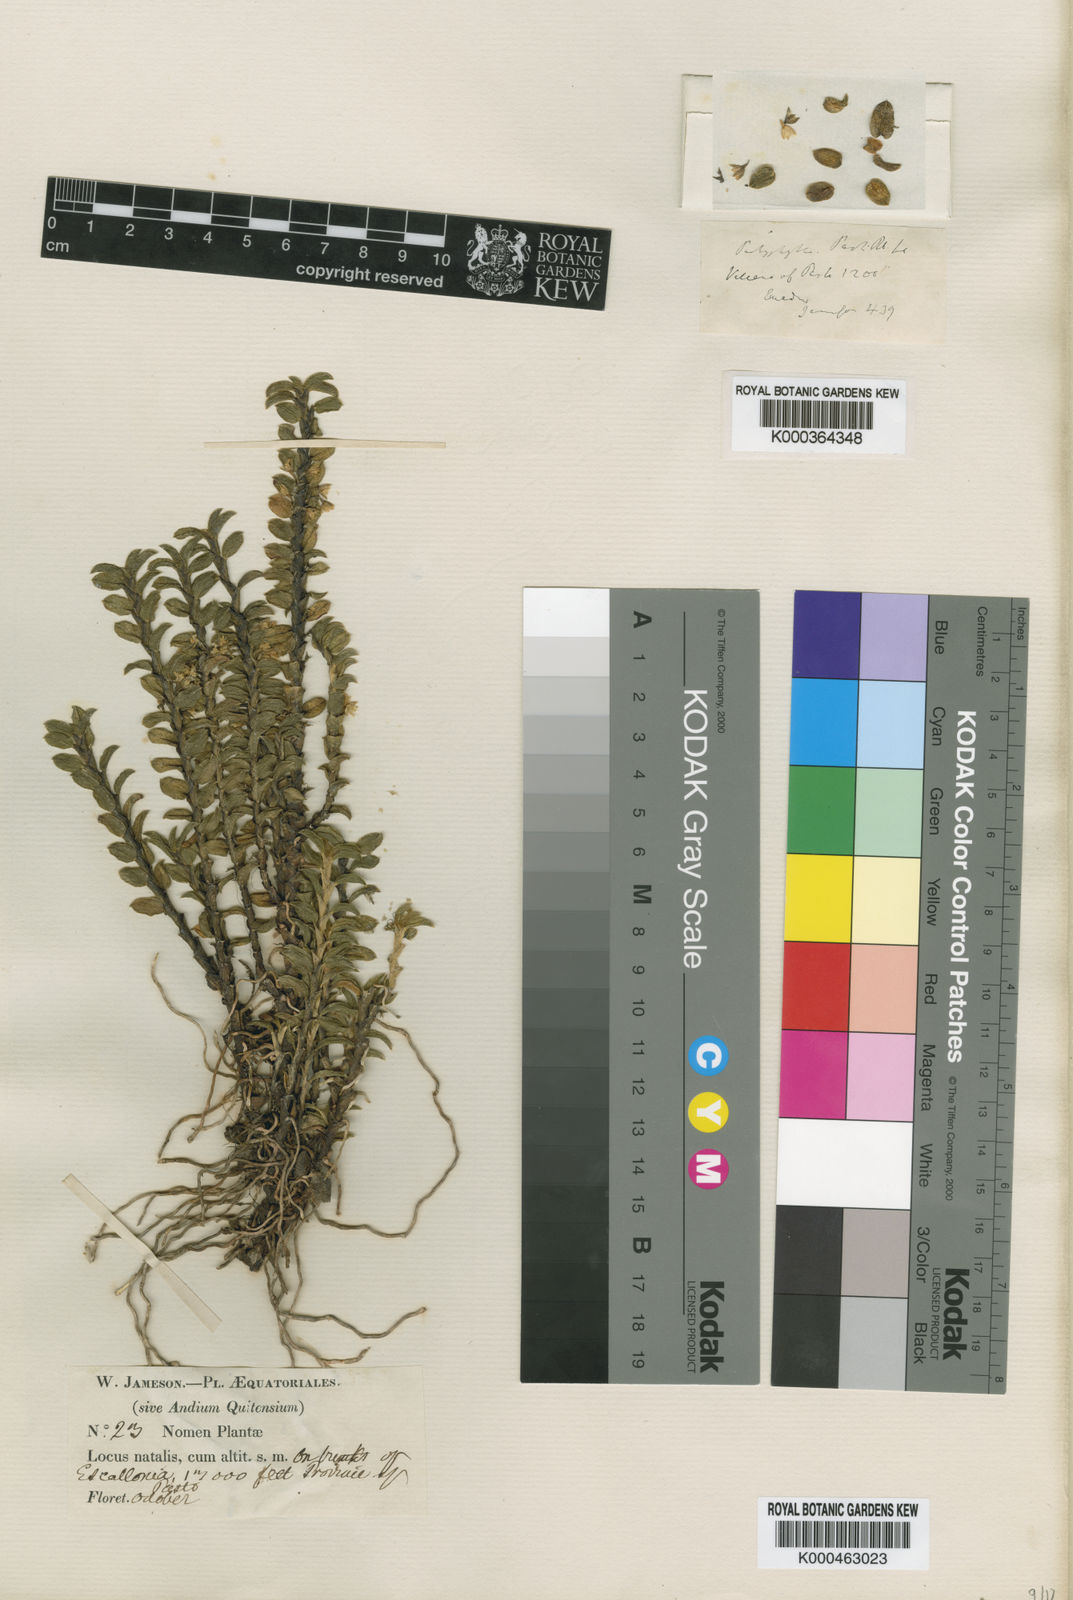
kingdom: Plantae
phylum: Tracheophyta
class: Liliopsida
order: Asparagales
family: Orchidaceae
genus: Fernandezia
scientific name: Fernandezia
